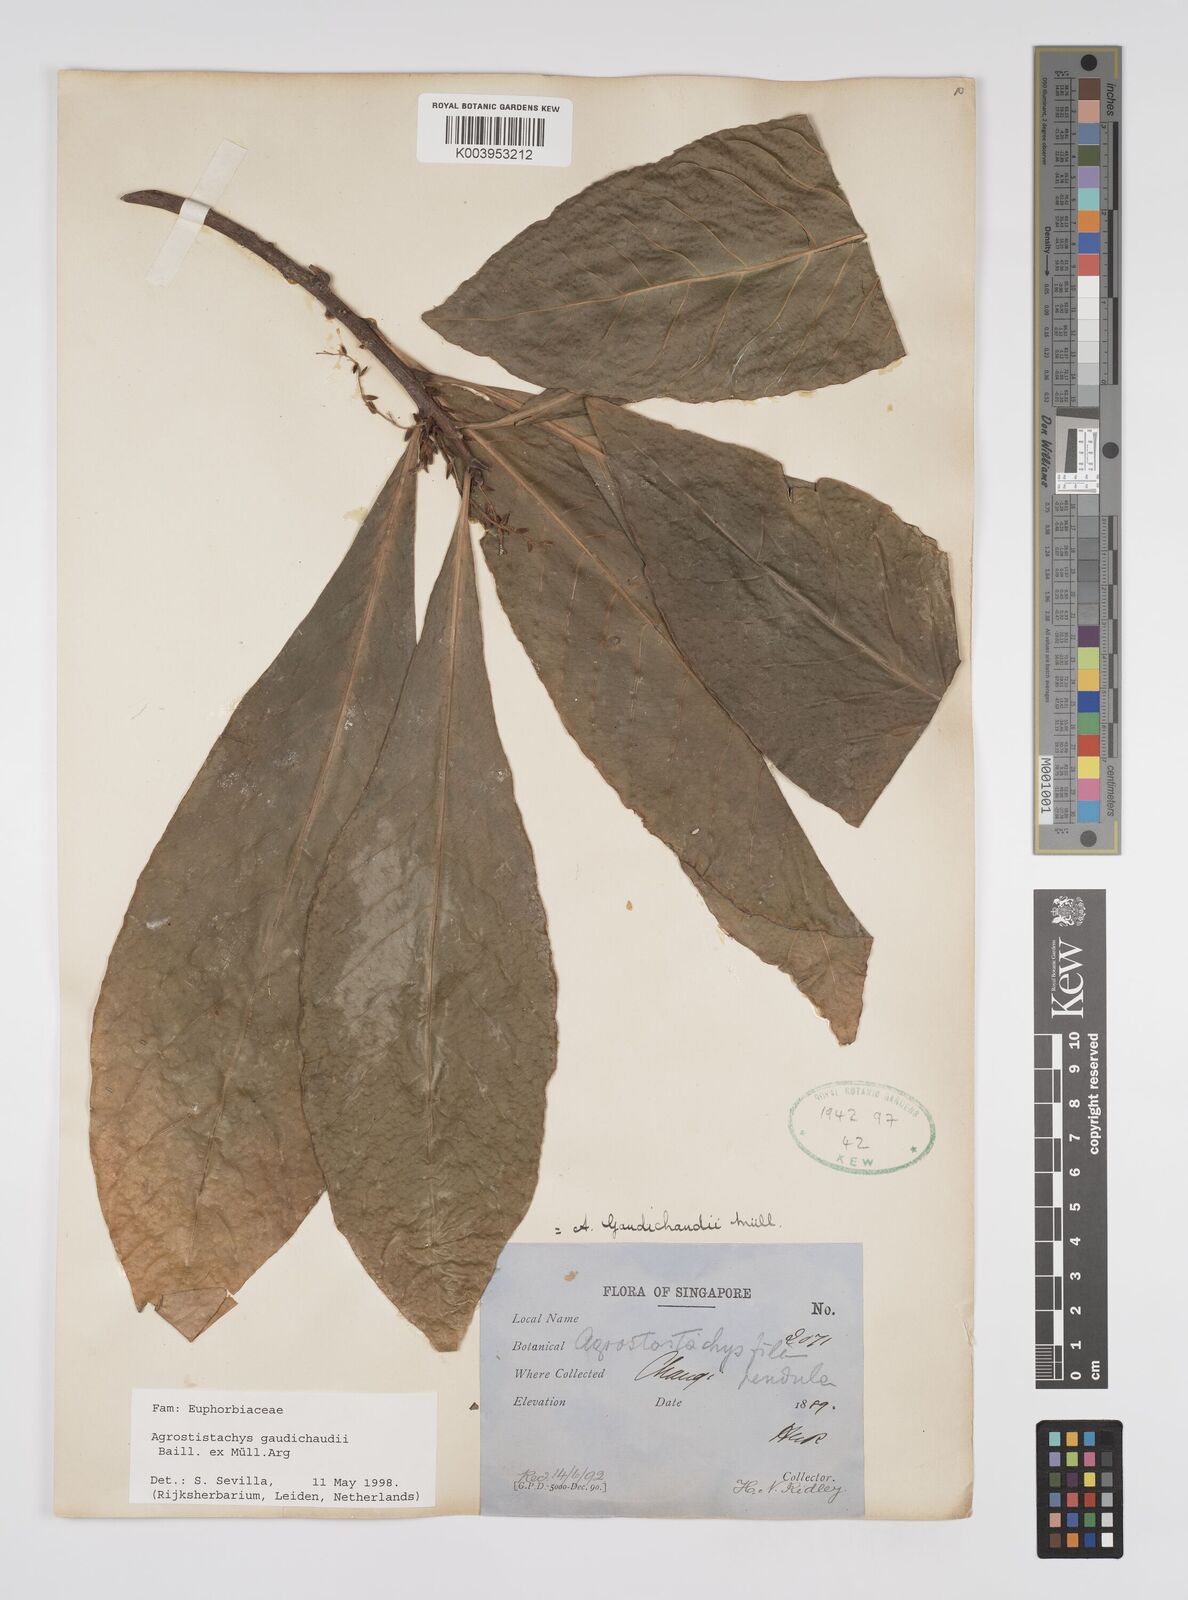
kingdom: Plantae
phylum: Tracheophyta
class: Magnoliopsida
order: Malpighiales
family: Euphorbiaceae
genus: Agrostistachys
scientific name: Agrostistachys gaudichaudii
